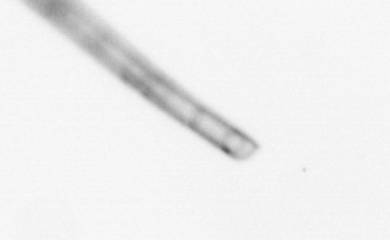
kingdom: Chromista
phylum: Ochrophyta
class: Bacillariophyceae
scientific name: Bacillariophyceae
